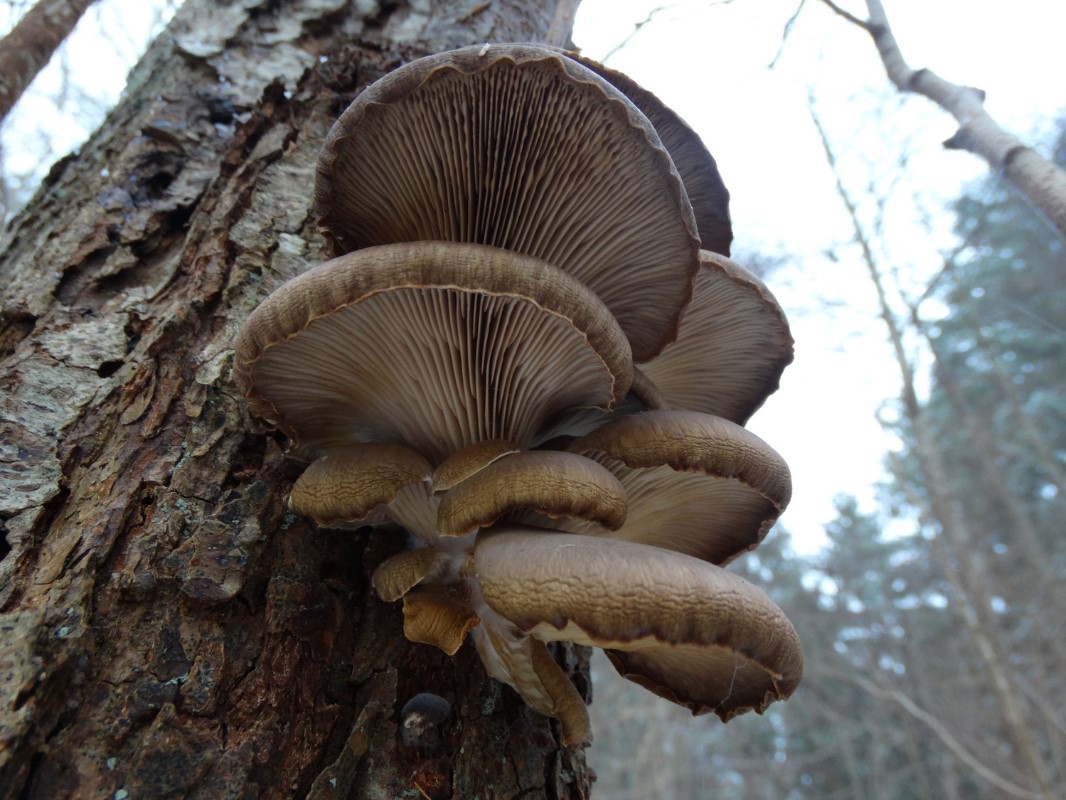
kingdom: Fungi
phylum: Basidiomycota
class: Agaricomycetes
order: Agaricales
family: Pleurotaceae
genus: Pleurotus
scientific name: Pleurotus ostreatus
